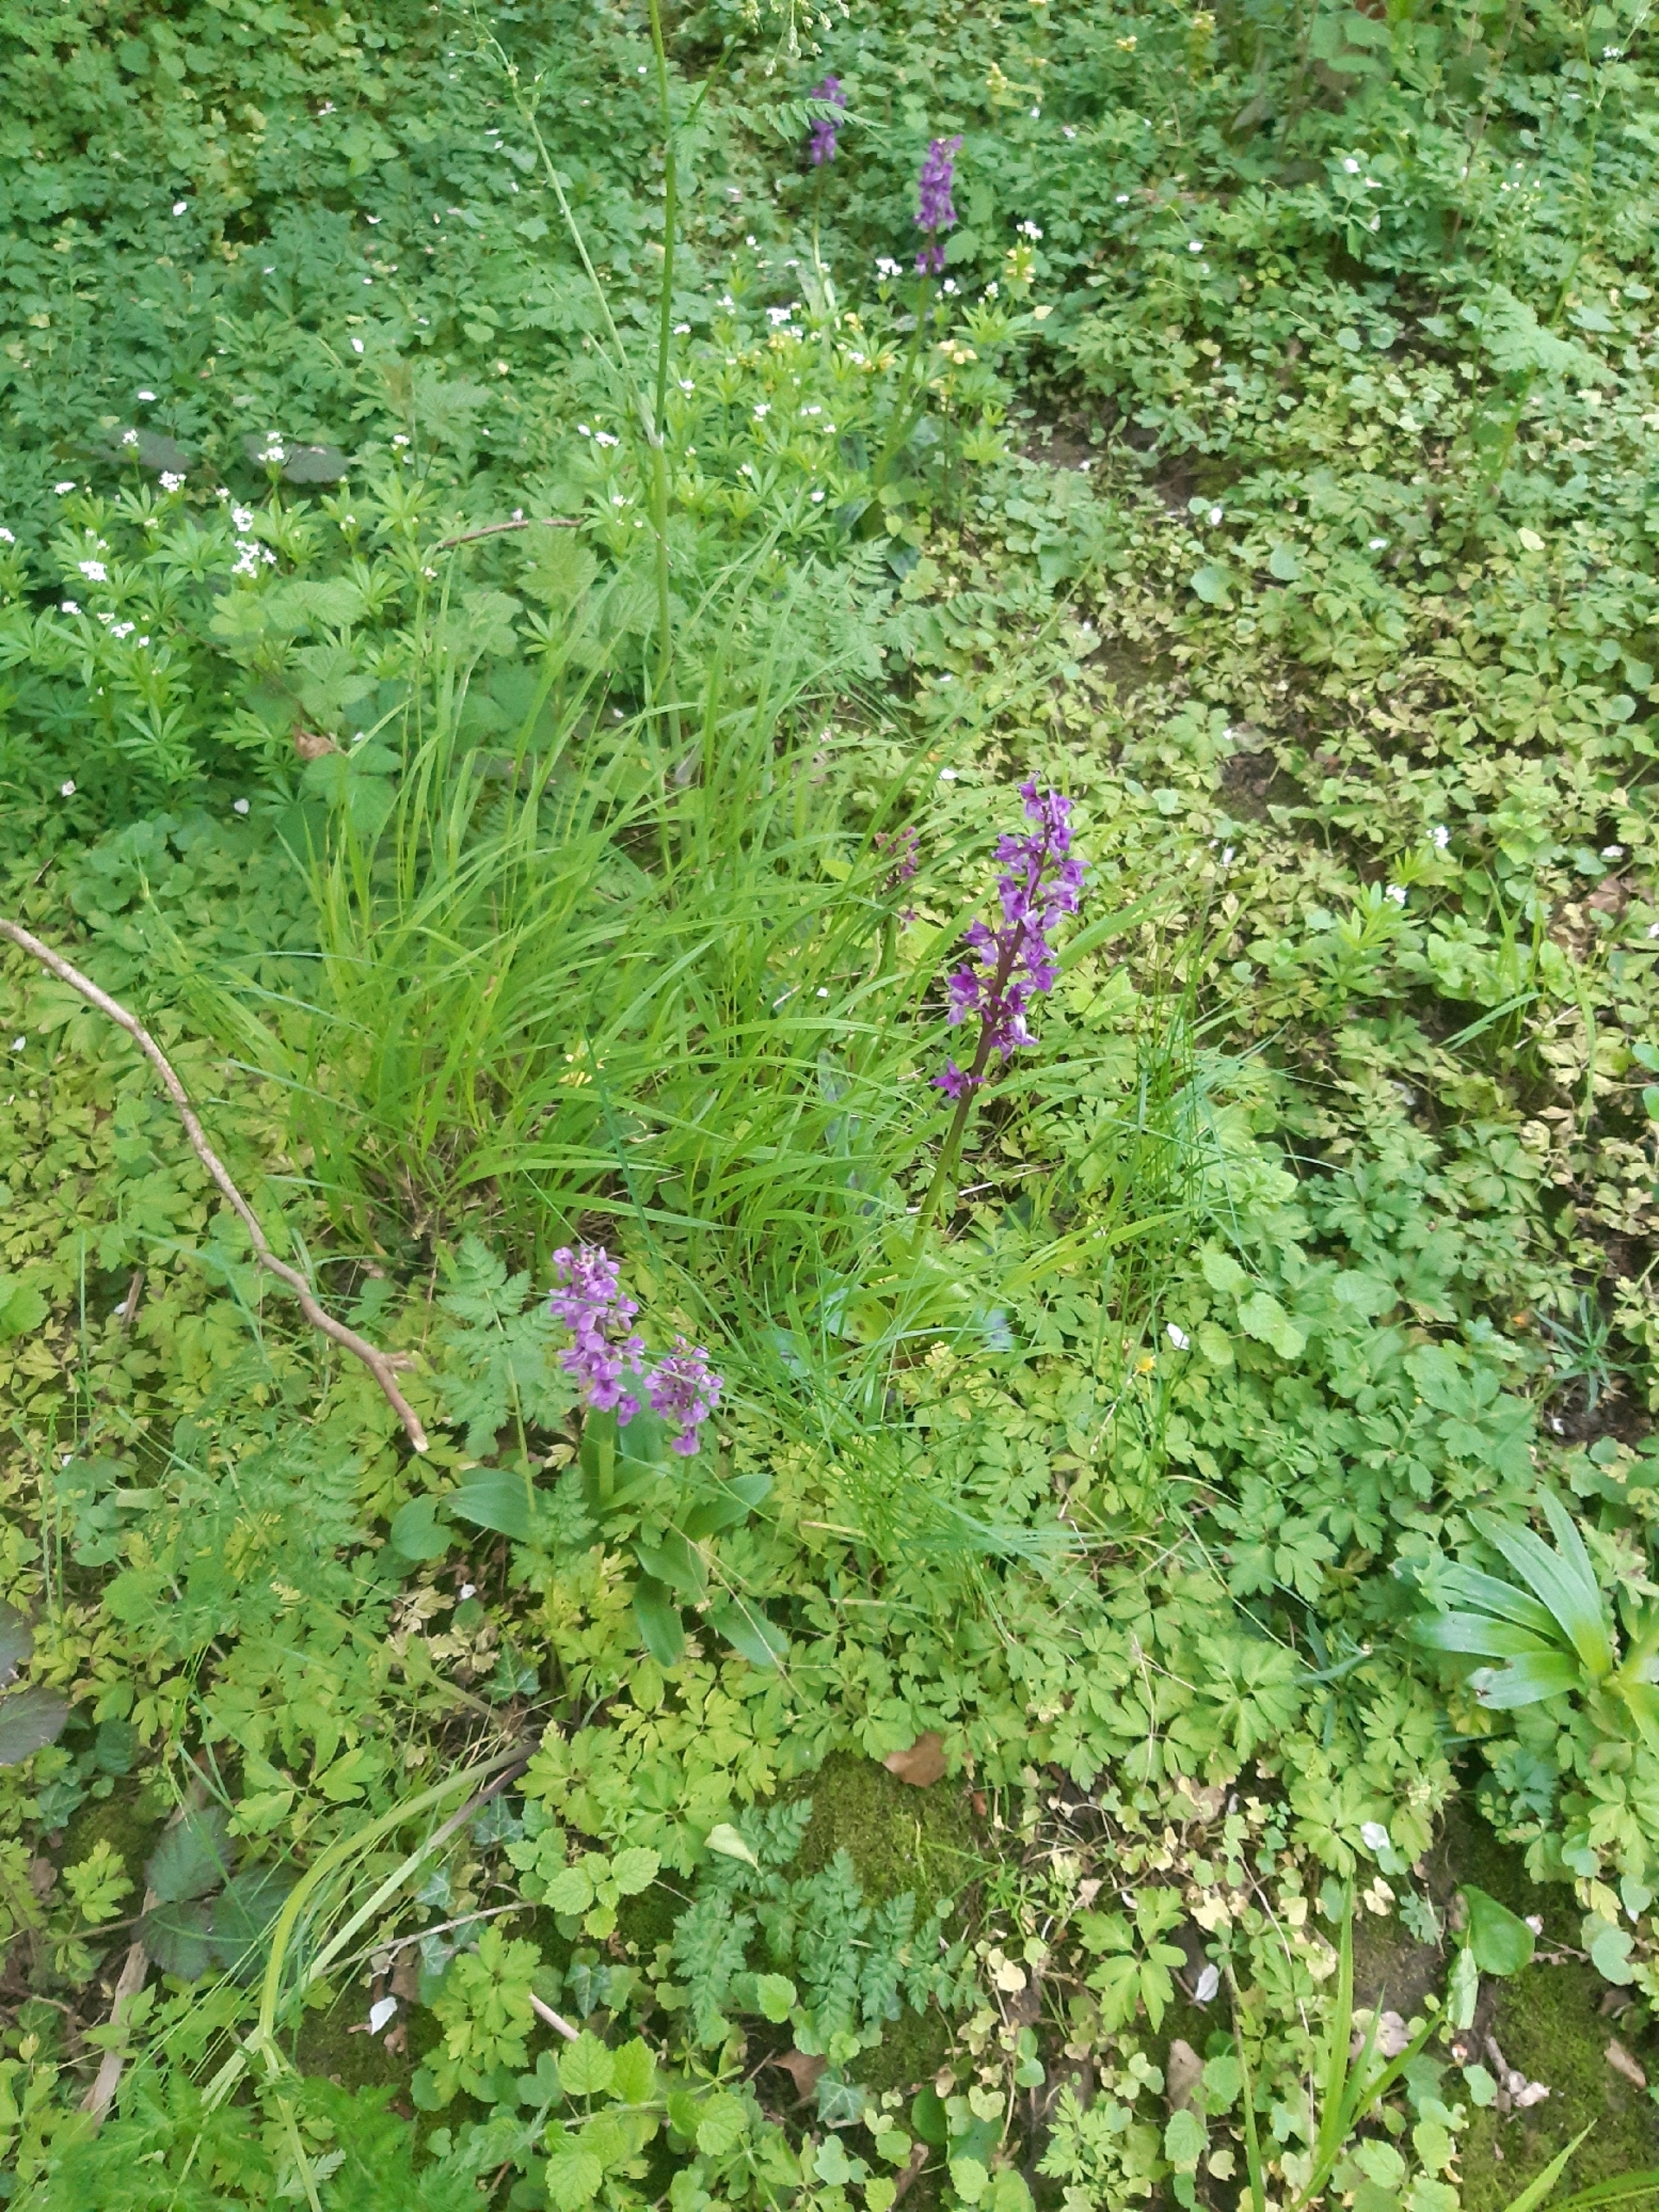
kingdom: Plantae
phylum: Tracheophyta
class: Liliopsida
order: Asparagales
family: Orchidaceae
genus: Orchis
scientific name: Orchis mascula
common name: Tyndakset gøgeurt
